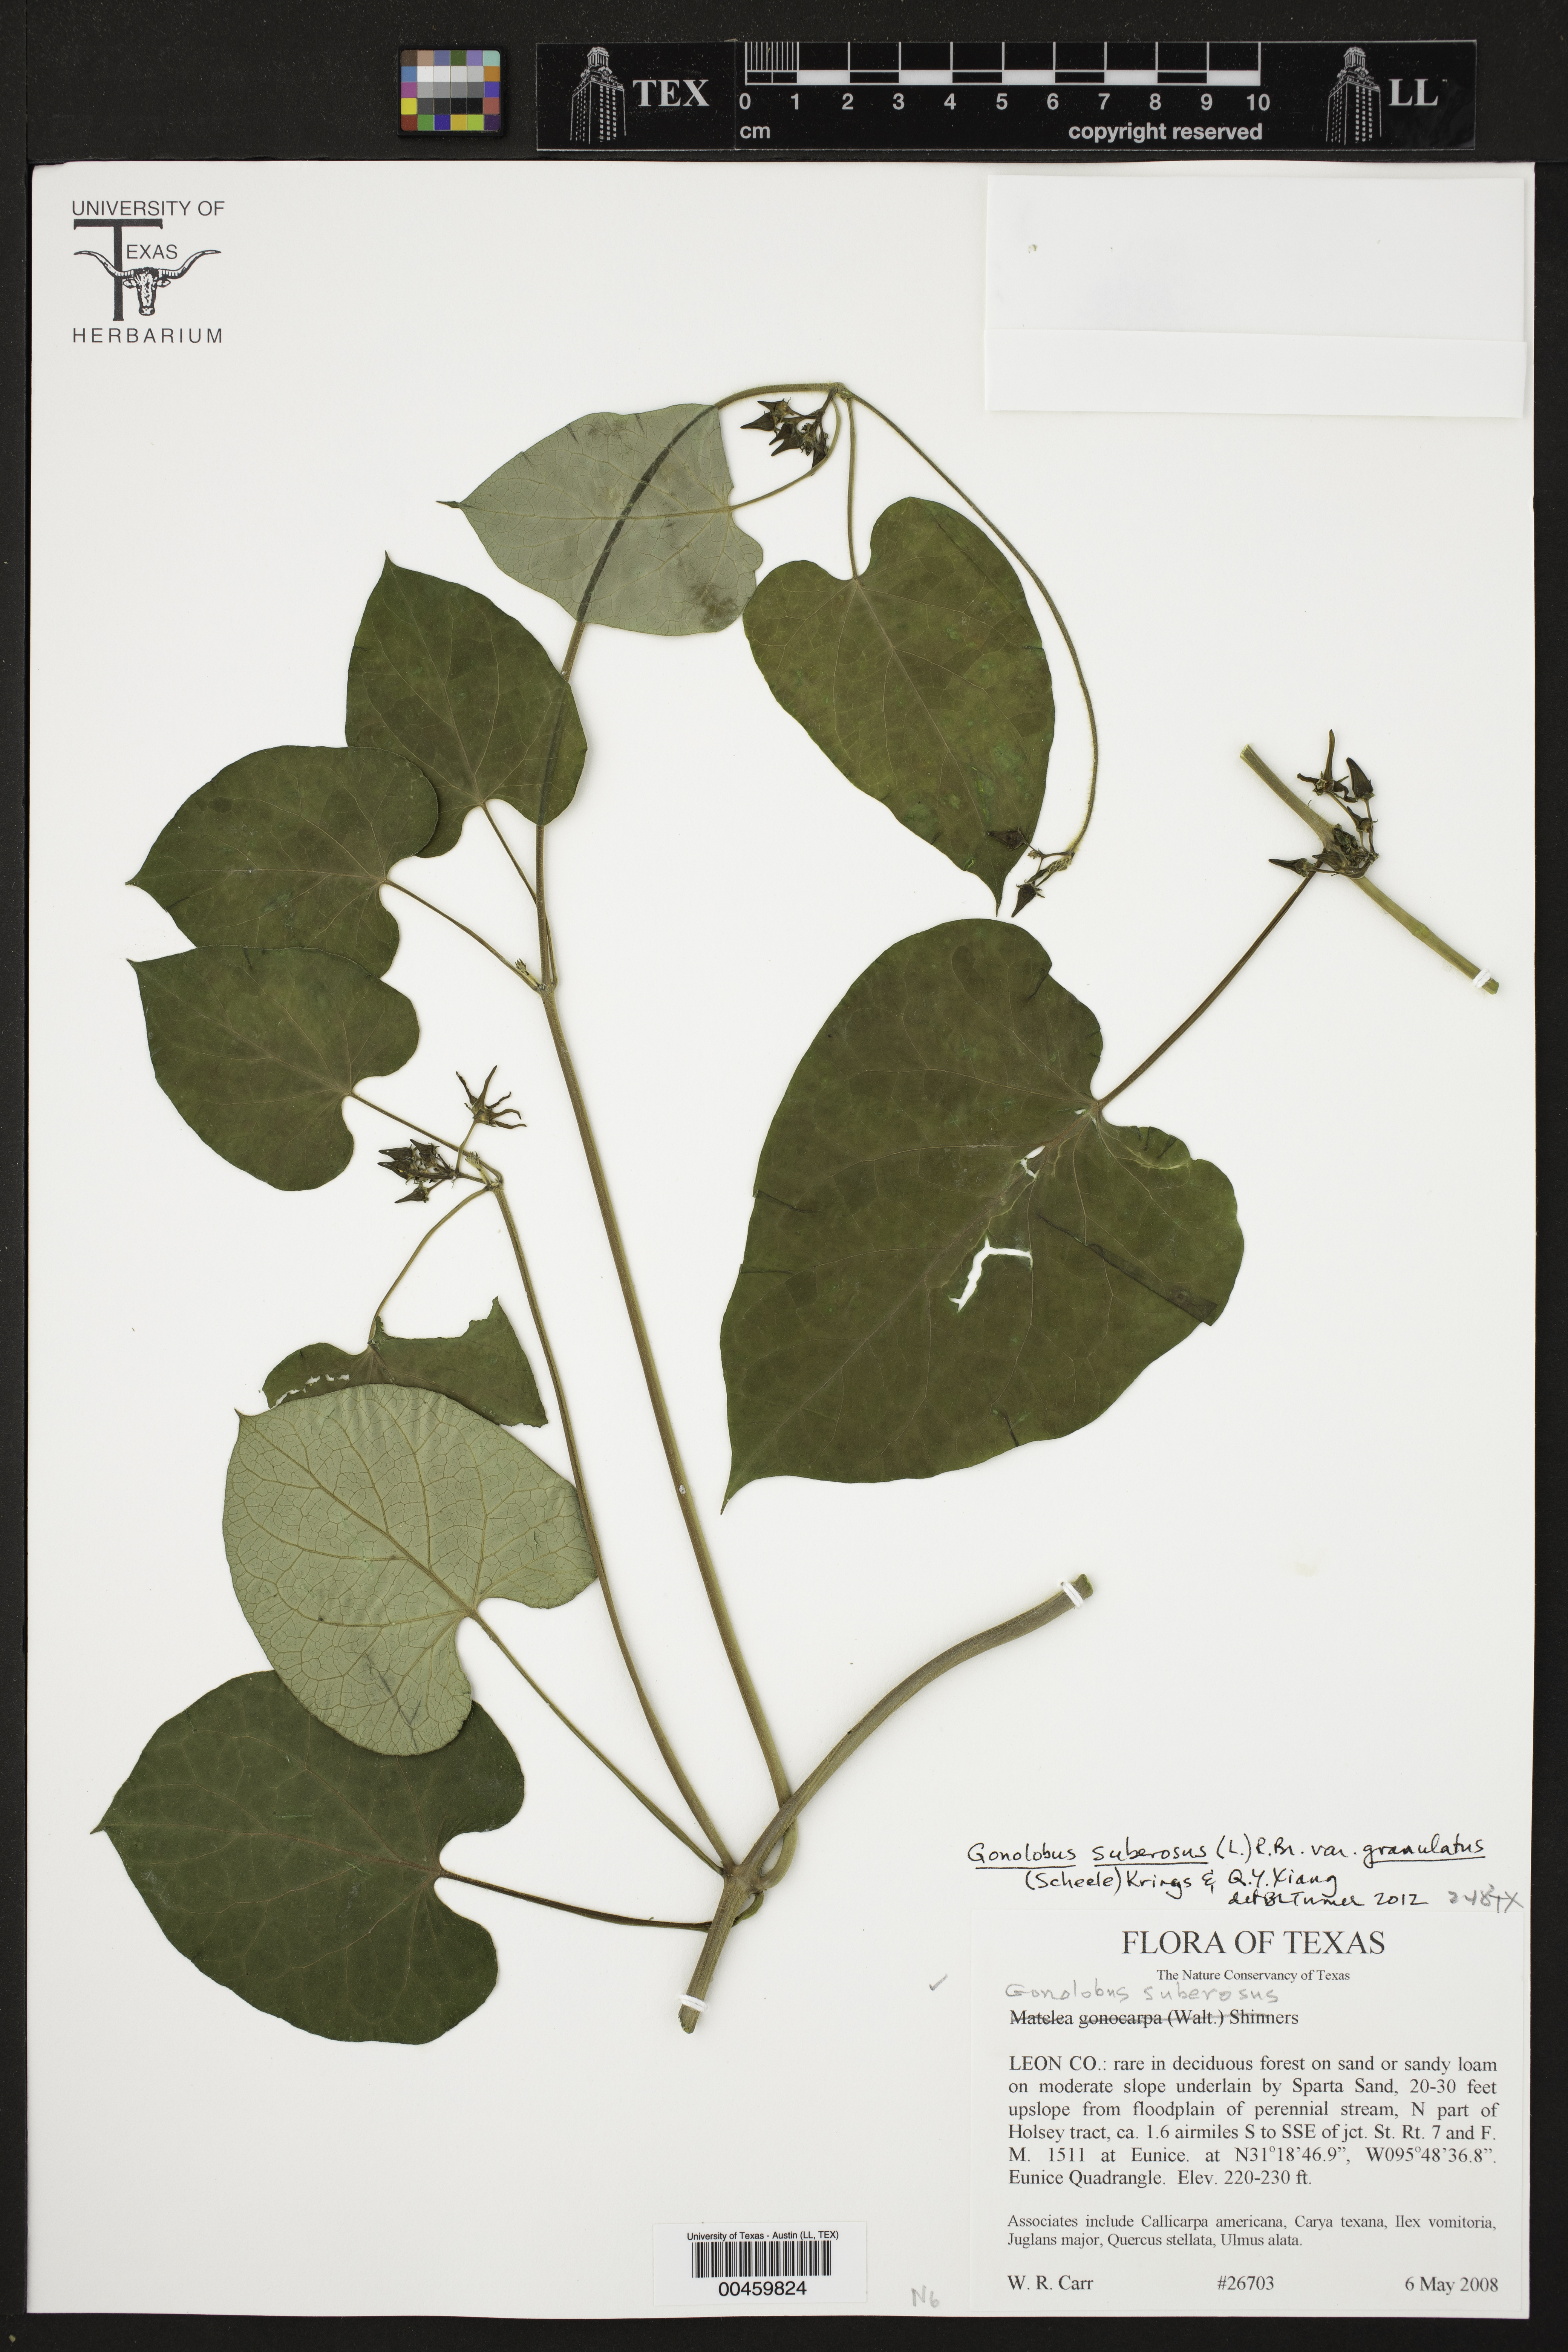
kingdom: Plantae
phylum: Tracheophyta
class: Magnoliopsida
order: Gentianales
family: Apocynaceae
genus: Gonolobus
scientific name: Gonolobus suberosus
